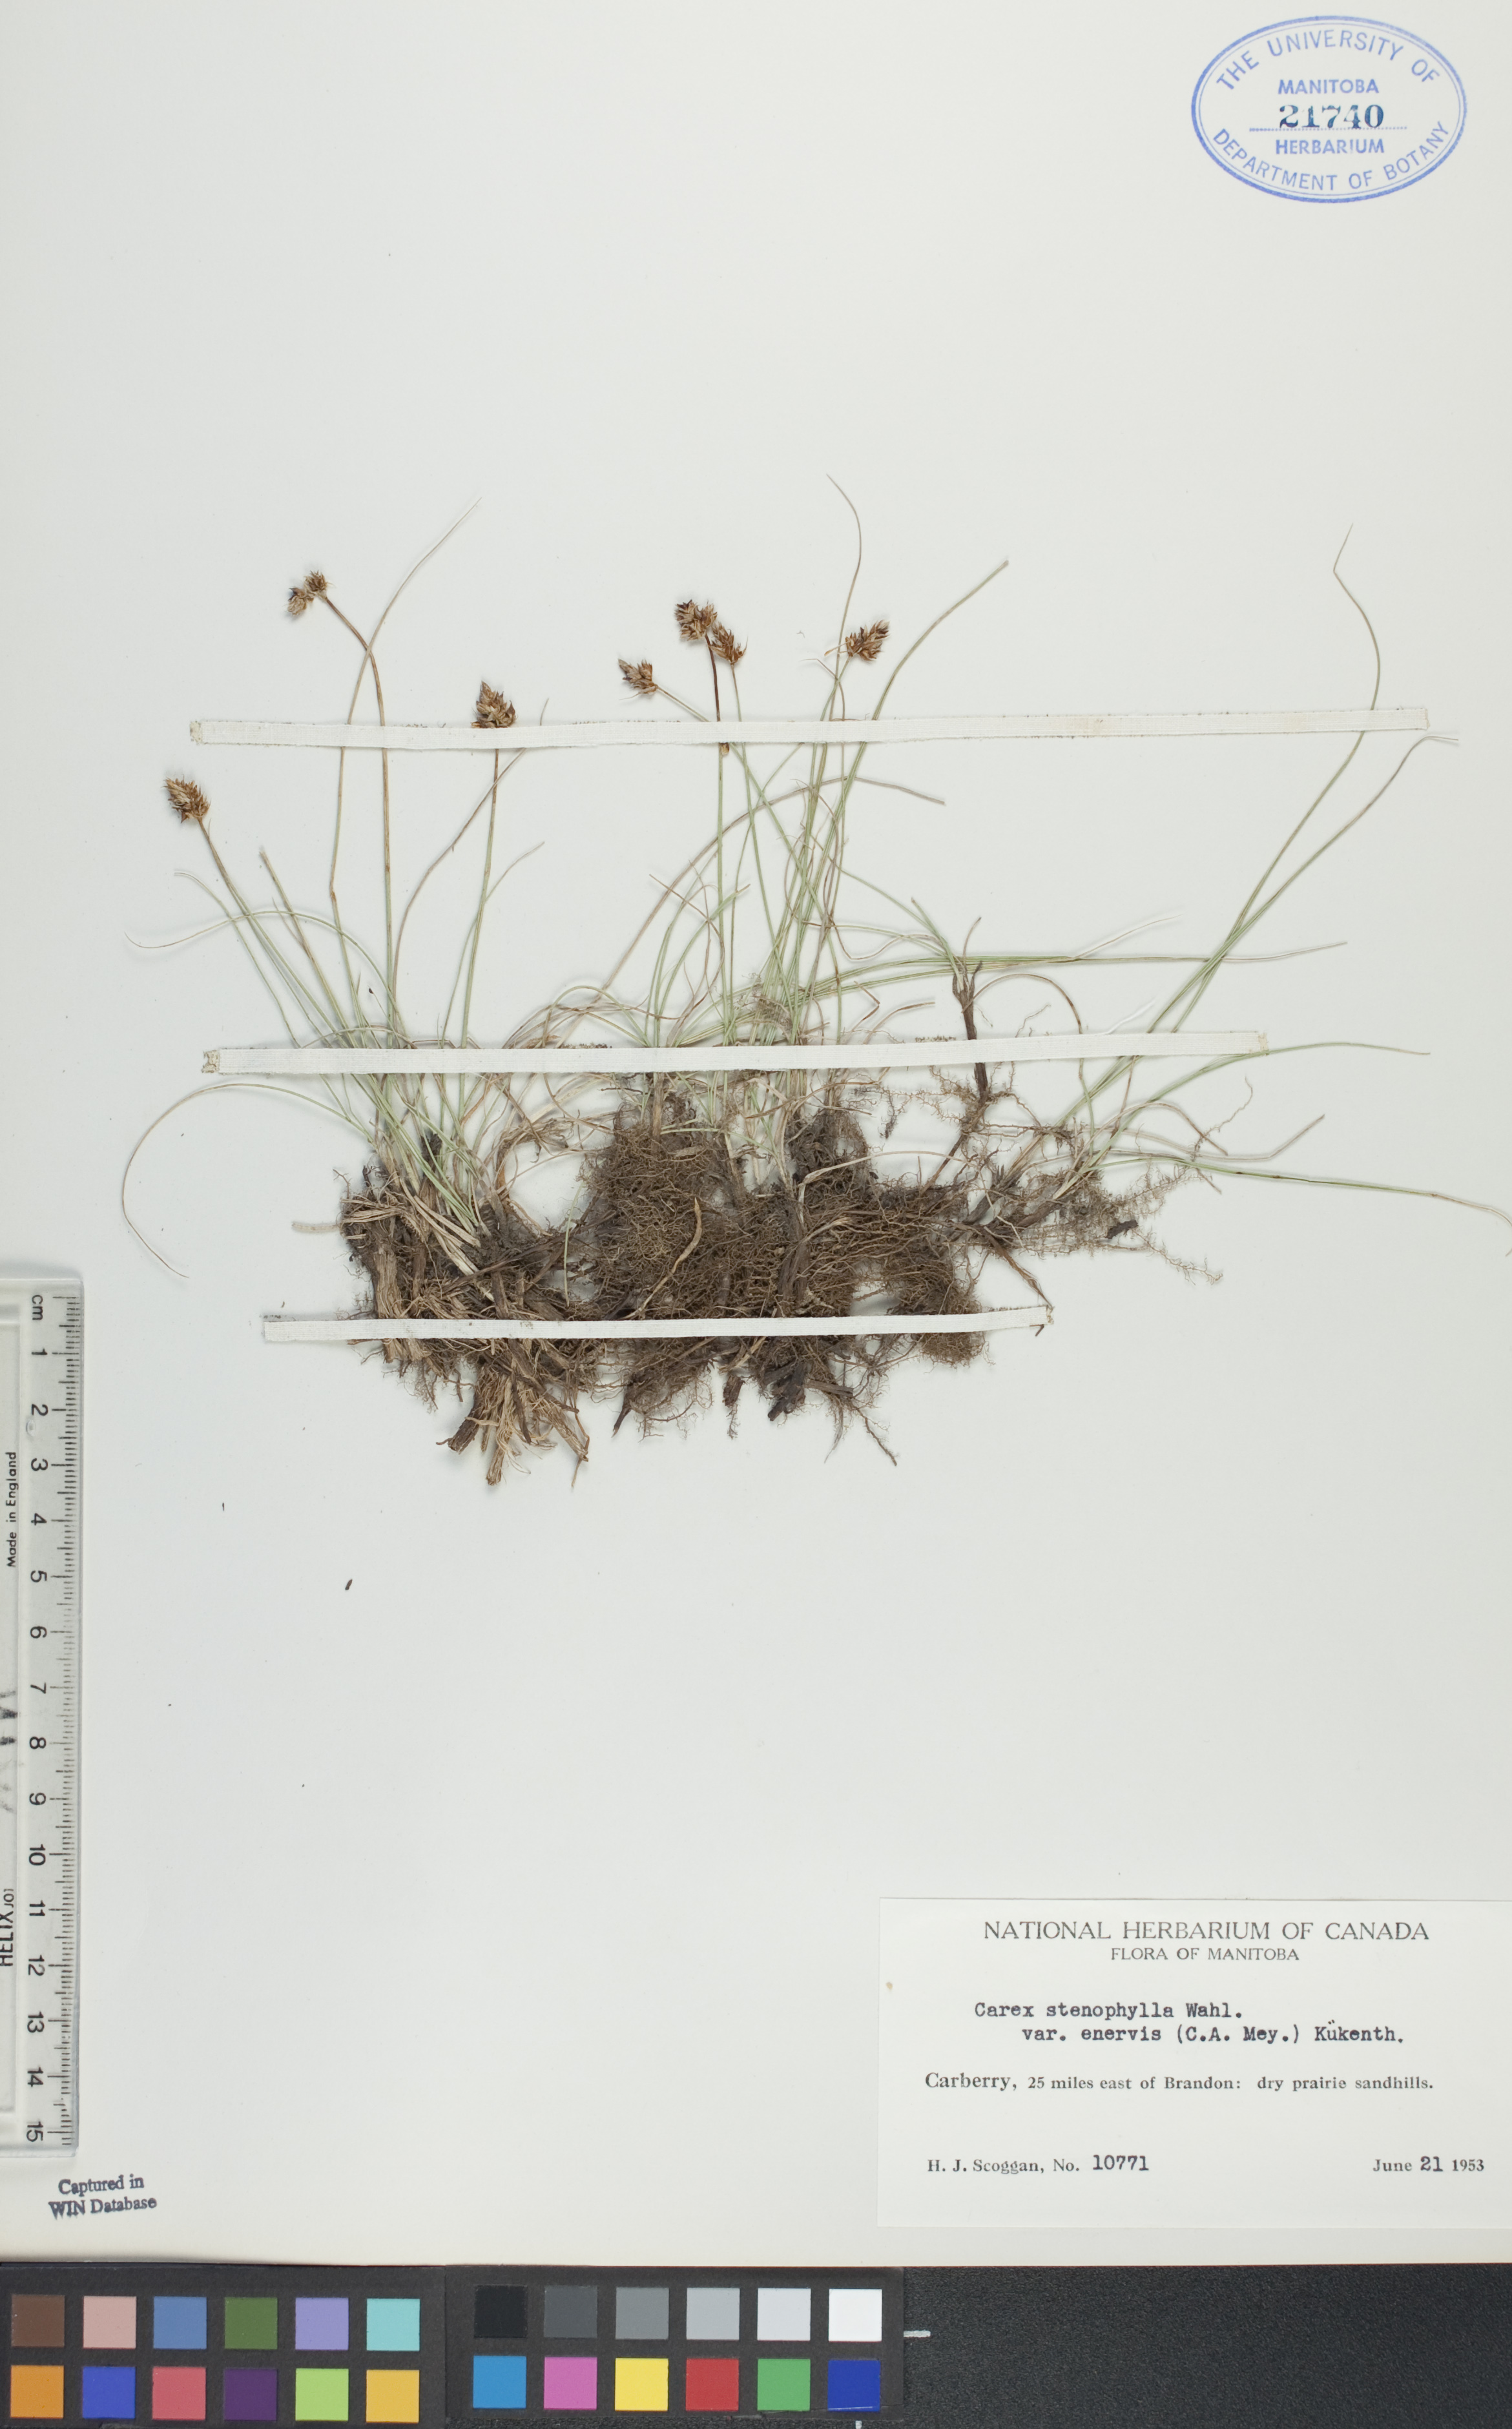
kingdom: Plantae
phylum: Tracheophyta
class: Liliopsida
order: Poales
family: Cyperaceae
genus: Carex
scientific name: Carex enervis
